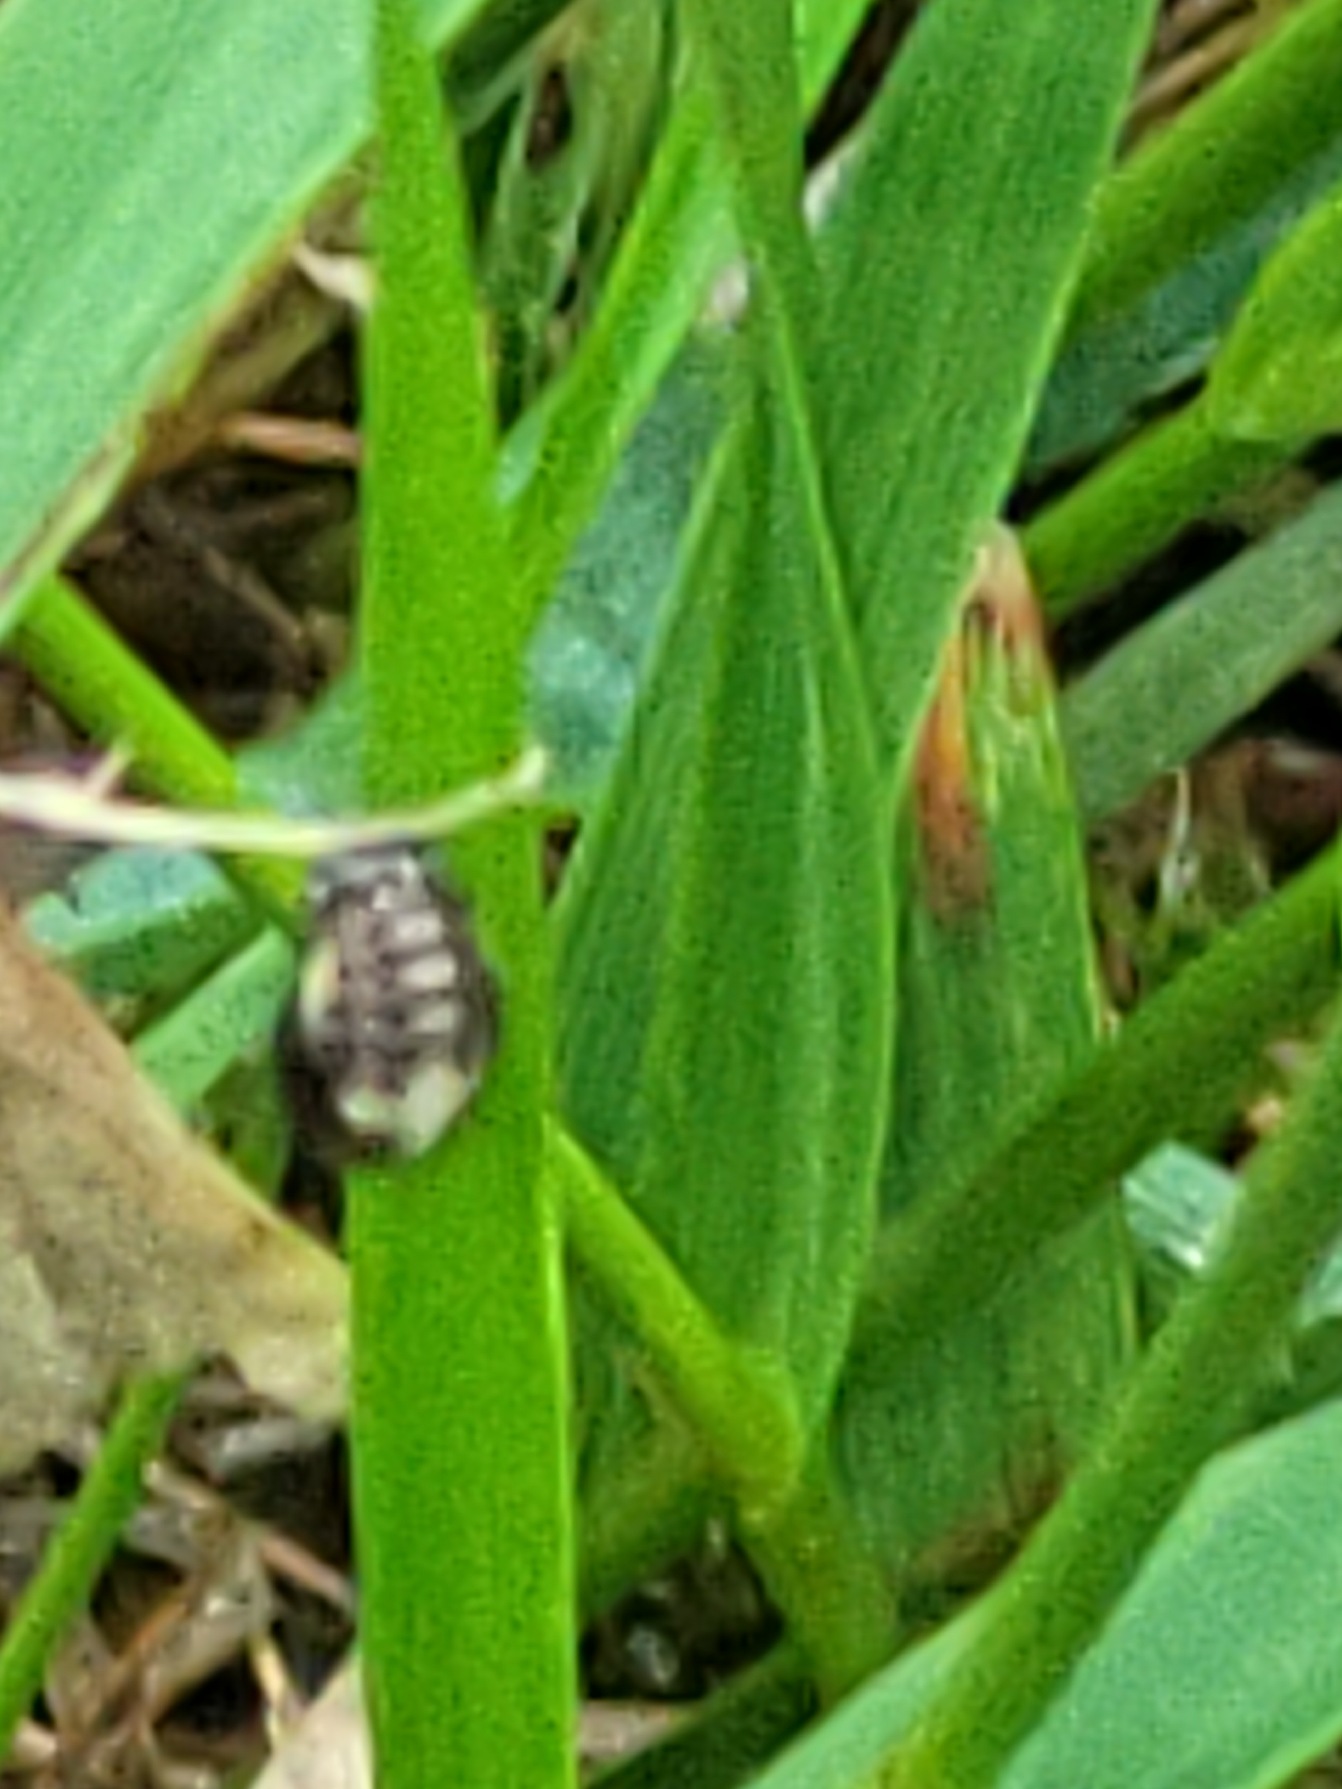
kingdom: Animalia
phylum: Arthropoda
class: Insecta
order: Coleoptera
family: Coccinellidae
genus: Propylaea
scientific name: Propylaea quatuordecimpunctata
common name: Skakbræt
